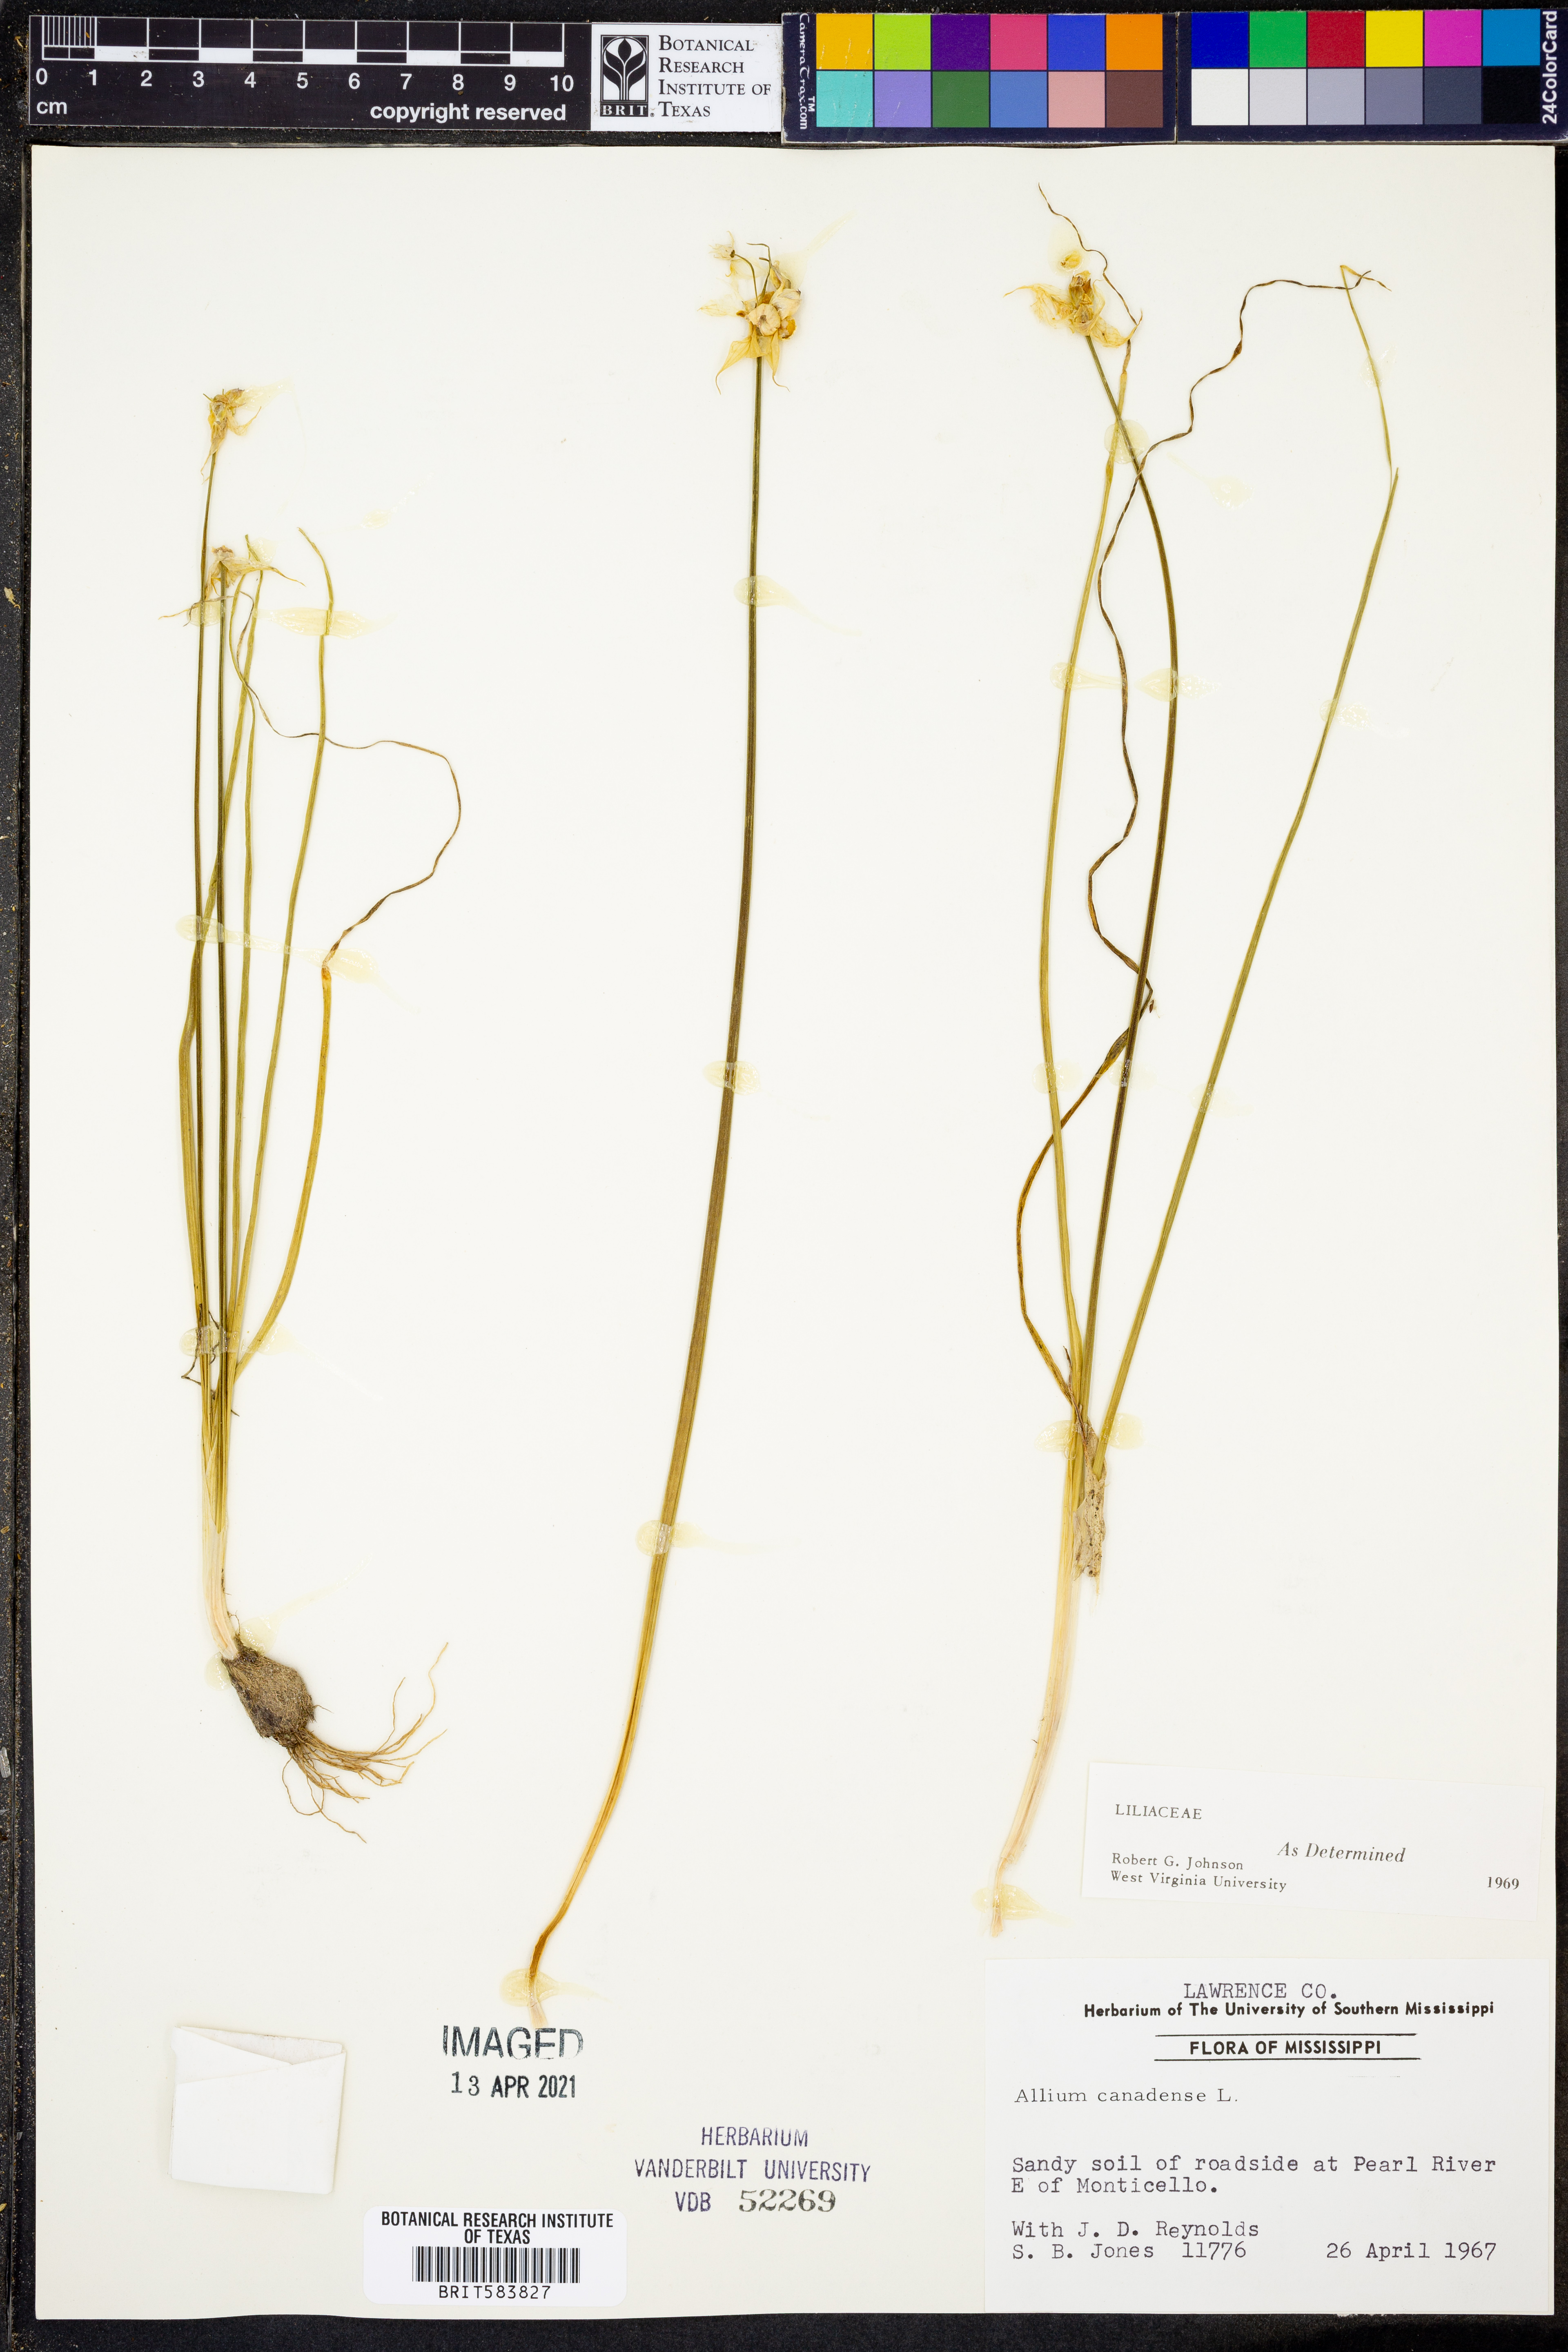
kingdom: Plantae
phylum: Tracheophyta
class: Liliopsida
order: Asparagales
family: Amaryllidaceae
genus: Allium
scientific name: Allium canadense
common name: Meadow garlic
